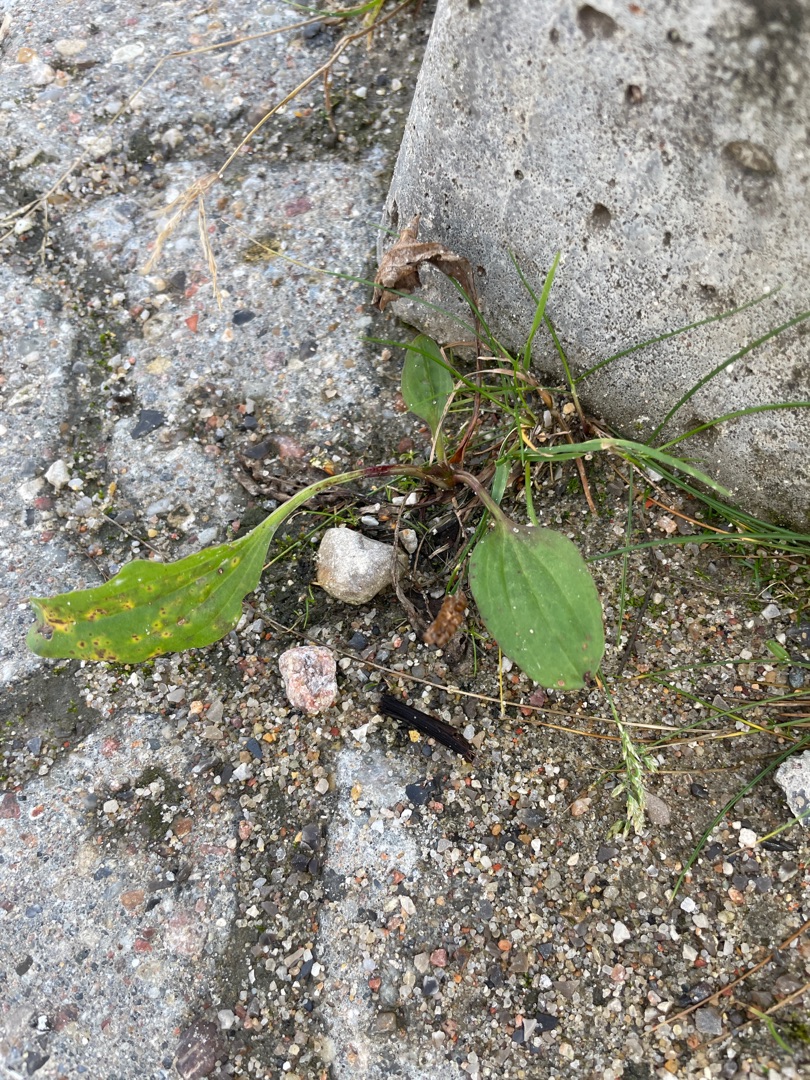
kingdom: Plantae
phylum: Tracheophyta
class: Magnoliopsida
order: Lamiales
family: Plantaginaceae
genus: Plantago
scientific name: Plantago major
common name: Glat vejbred
